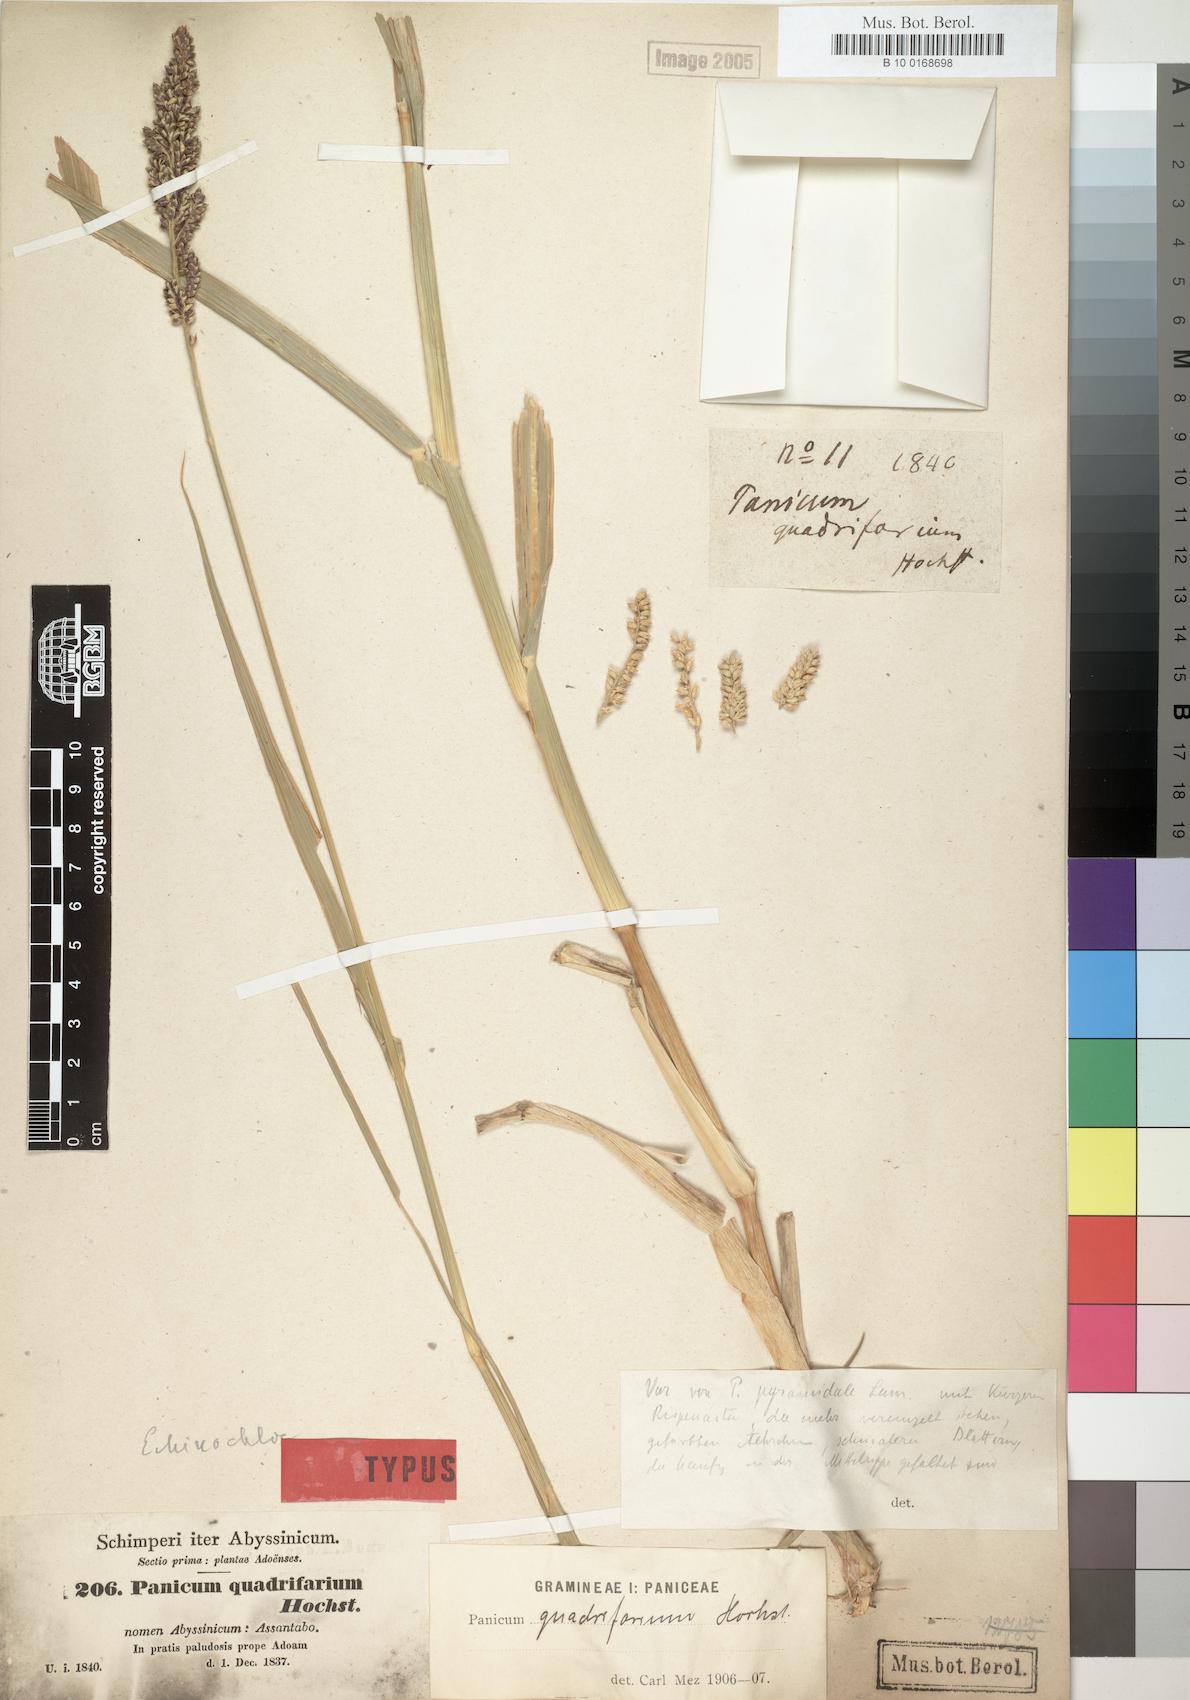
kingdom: Plantae
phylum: Tracheophyta
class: Liliopsida
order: Poales
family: Poaceae
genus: Panicum
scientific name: Panicum quadrifarium
